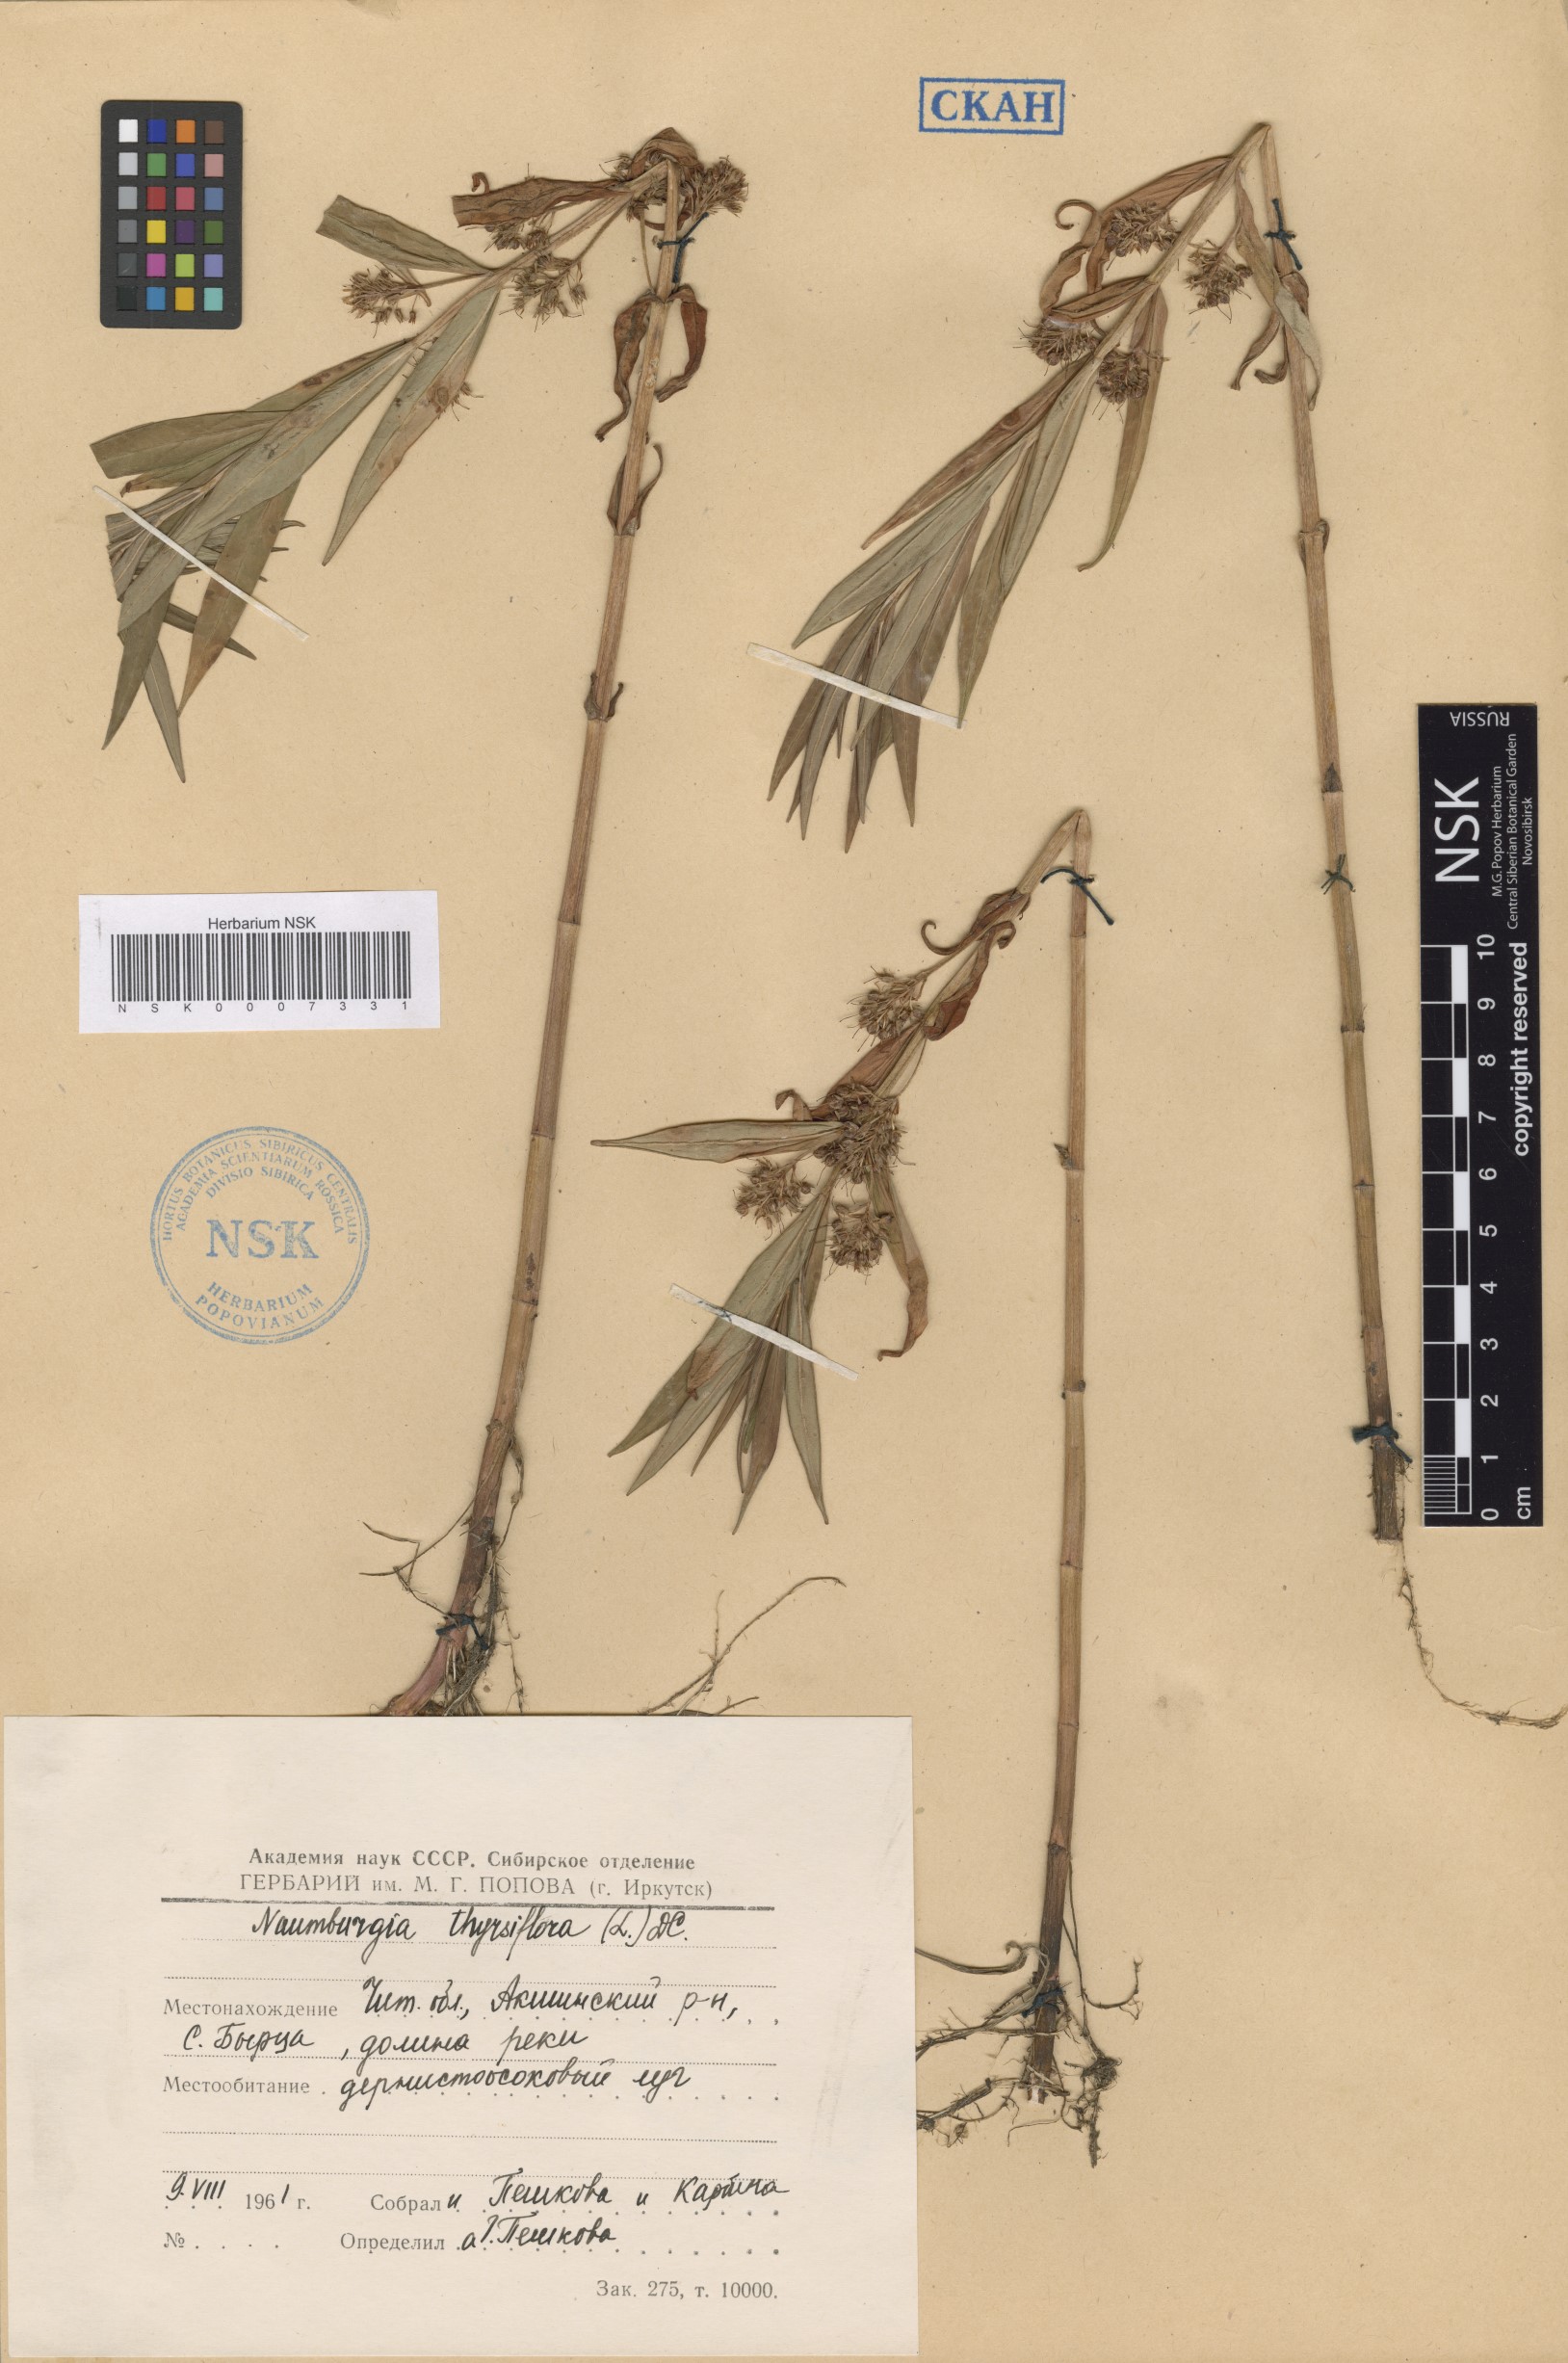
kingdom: Plantae
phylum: Tracheophyta
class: Magnoliopsida
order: Ericales
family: Primulaceae
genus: Lysimachia
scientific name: Lysimachia thyrsiflora
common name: Tufted loosestrife
